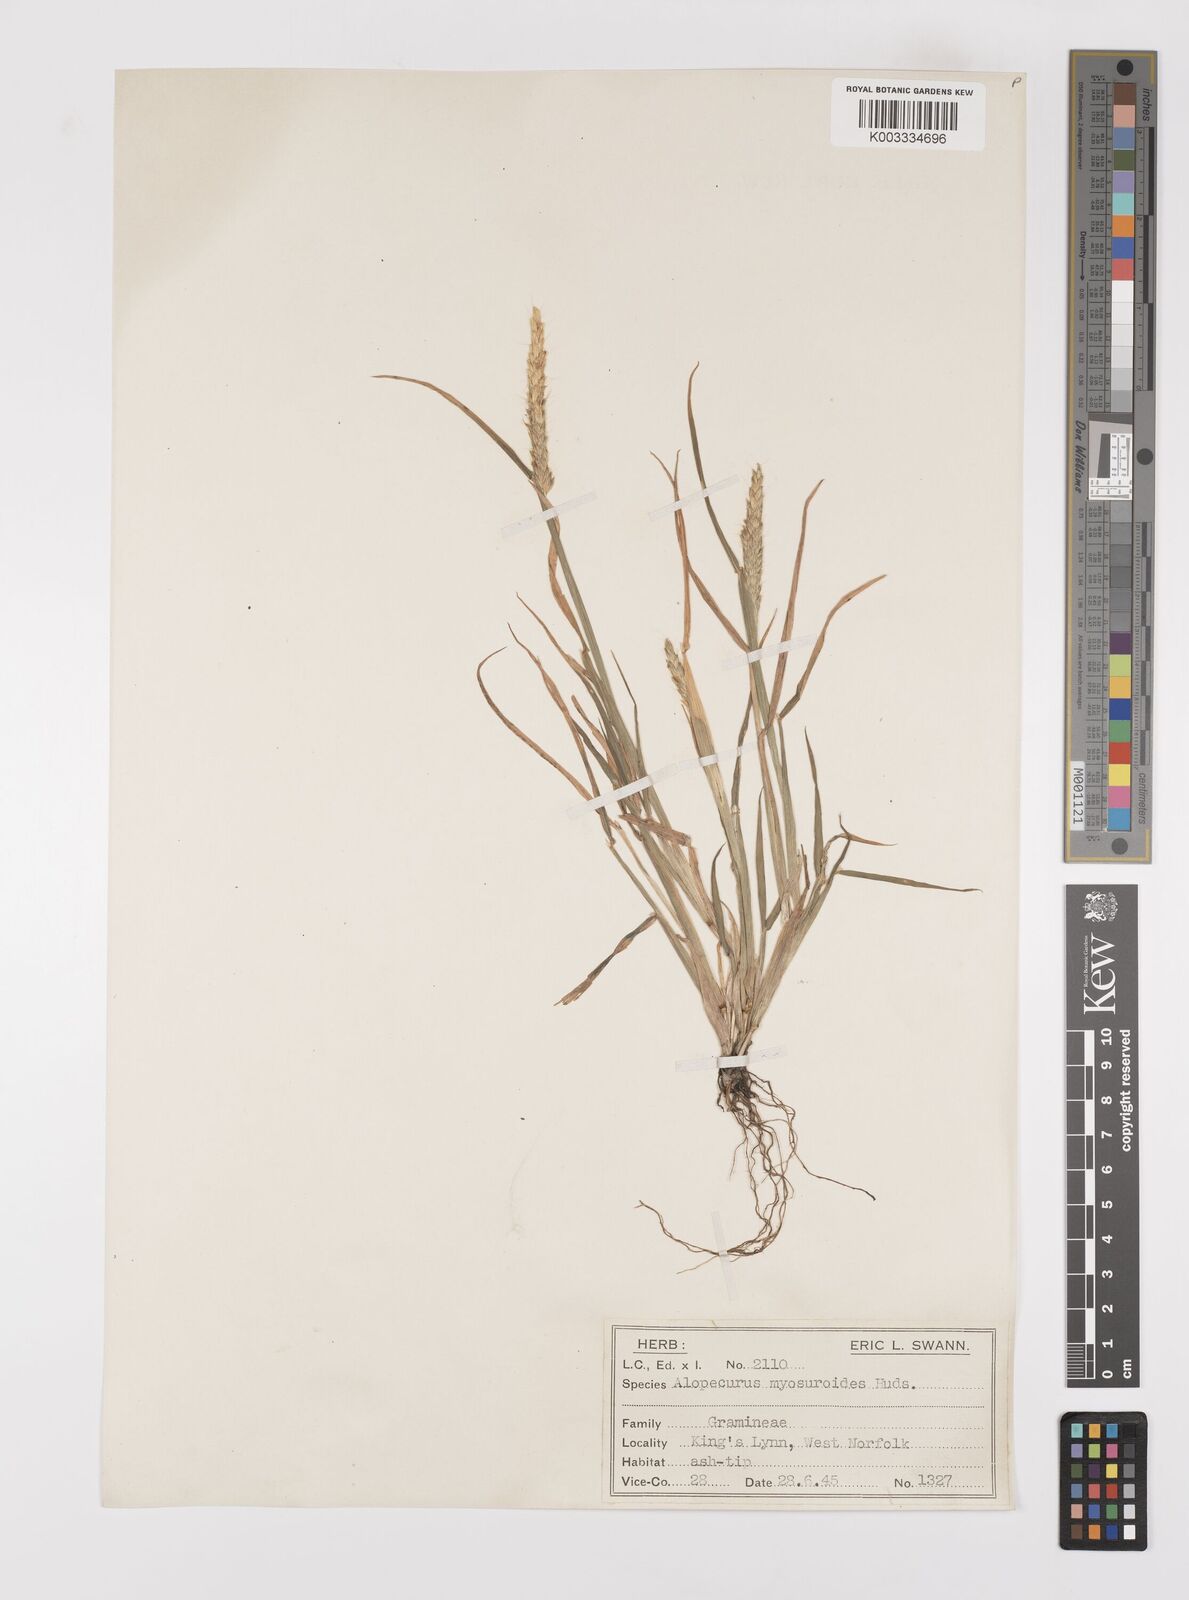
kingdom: Plantae
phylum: Tracheophyta
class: Liliopsida
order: Poales
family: Poaceae
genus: Alopecurus
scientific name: Alopecurus myosuroides
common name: Black-grass
